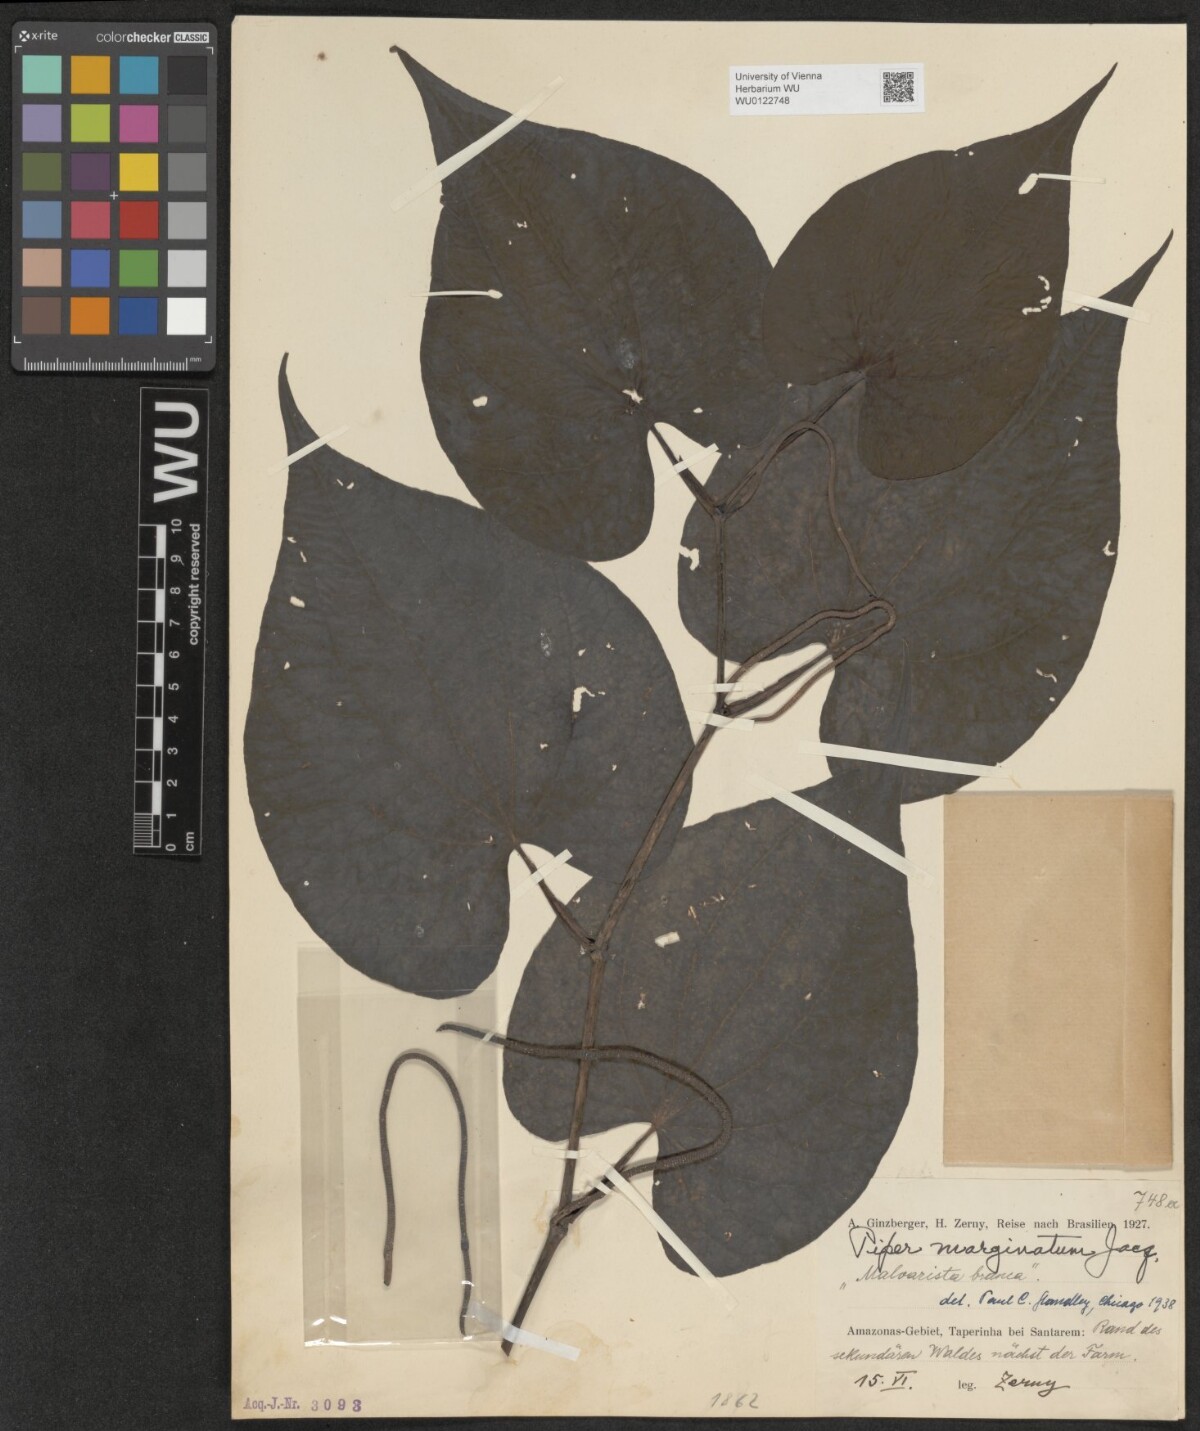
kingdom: Plantae
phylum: Tracheophyta
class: Magnoliopsida
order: Piperales
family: Piperaceae
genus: Piper
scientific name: Piper marginatum
